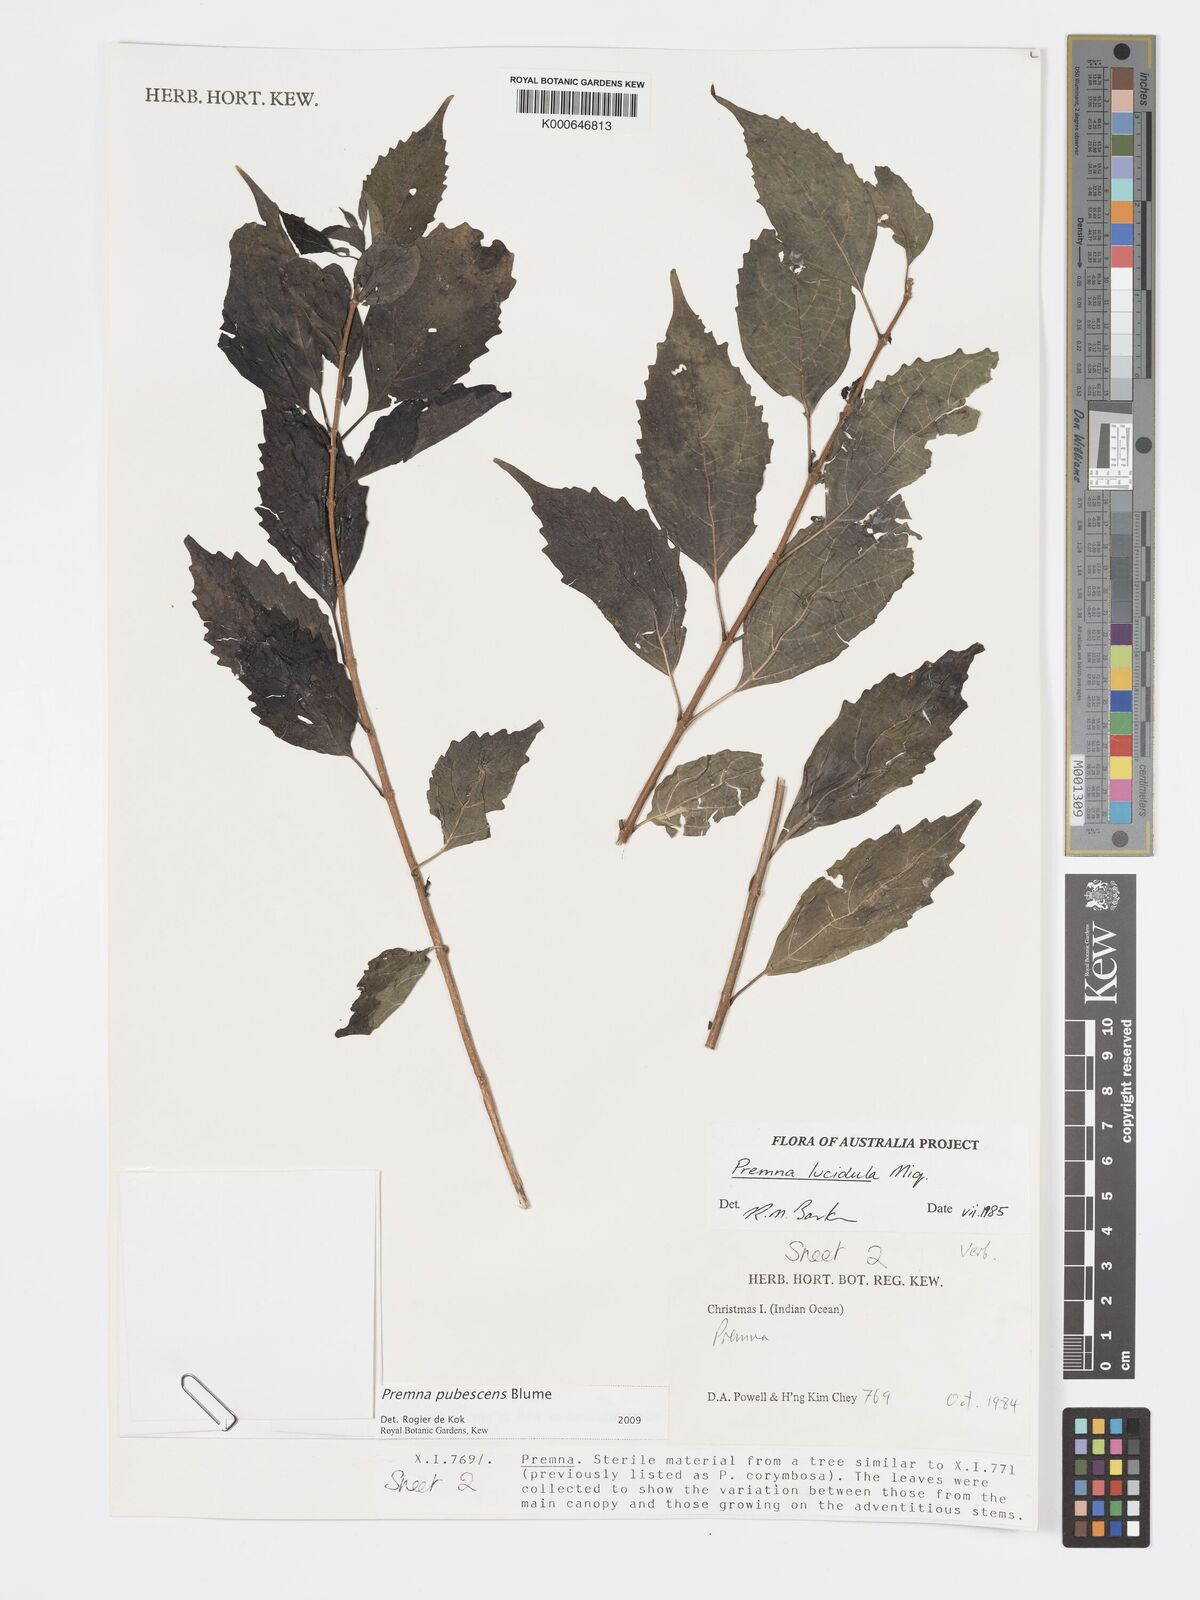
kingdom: Plantae
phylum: Tracheophyta
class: Magnoliopsida
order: Lamiales
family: Lamiaceae
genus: Premna
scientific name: Premna
